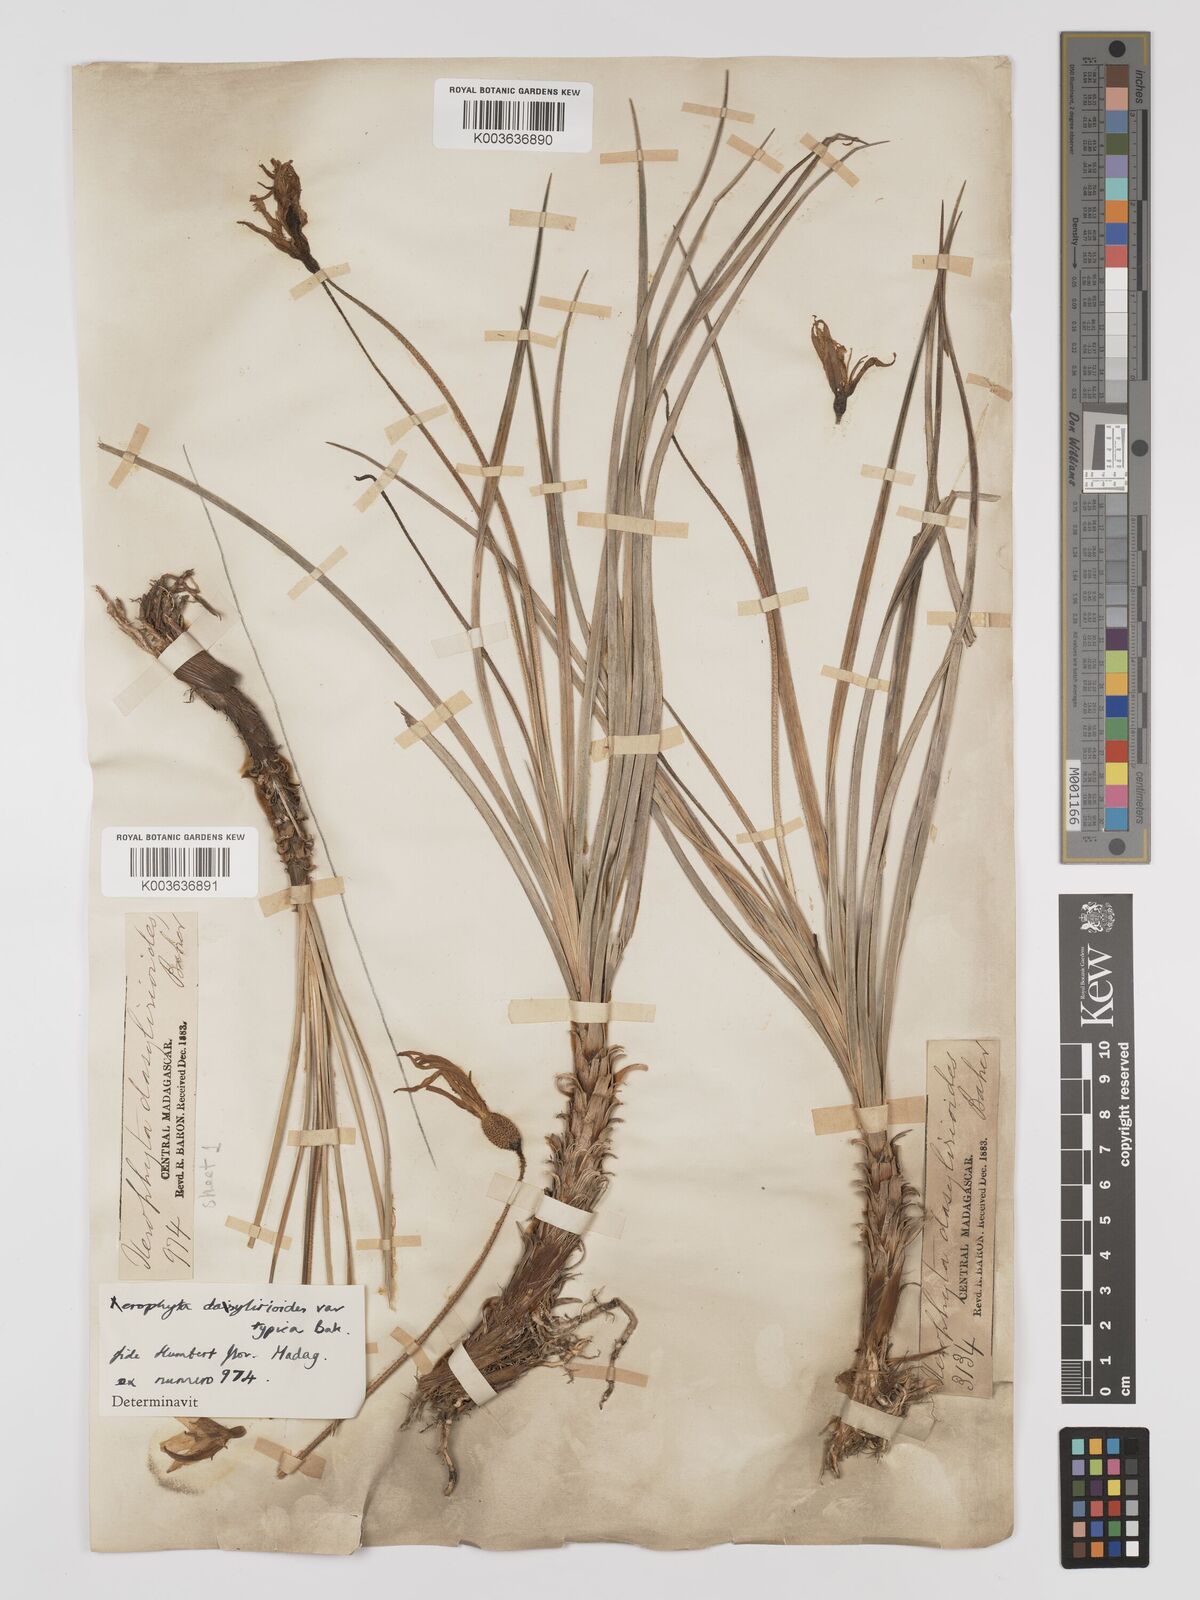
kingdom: Plantae
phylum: Tracheophyta
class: Liliopsida
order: Pandanales
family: Velloziaceae
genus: Xerophyta
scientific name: Xerophyta dasylirioides
